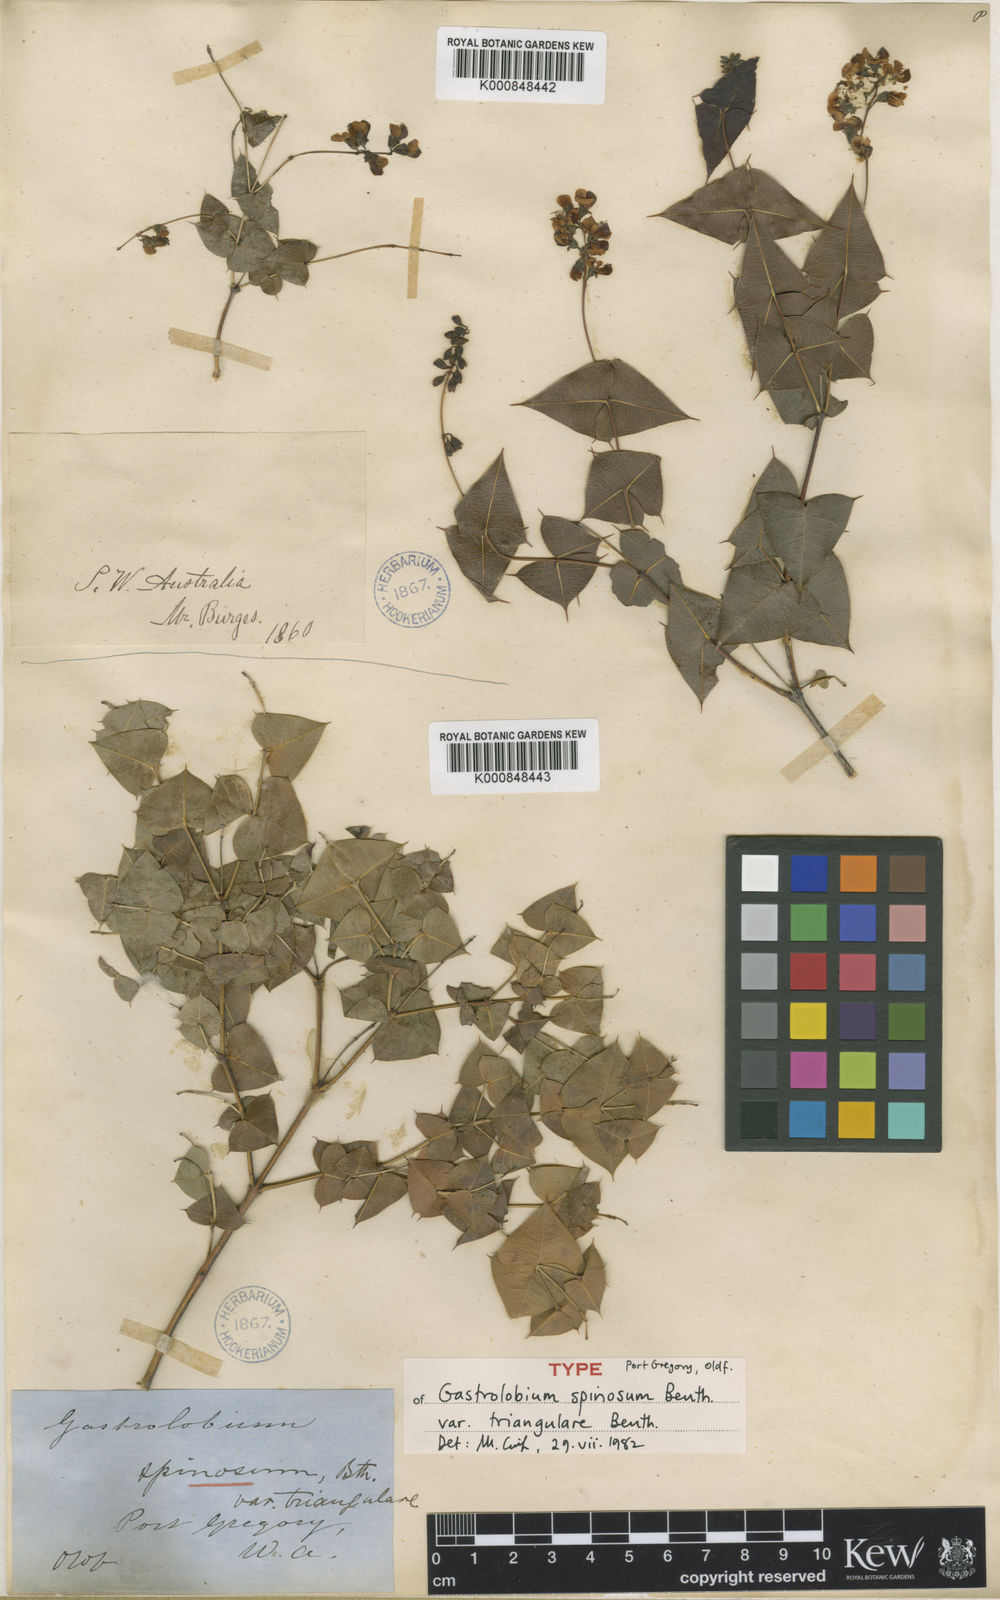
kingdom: Plantae
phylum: Tracheophyta
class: Magnoliopsida
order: Fabales
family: Fabaceae
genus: Gastrolobium
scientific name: Gastrolobium triangulare
